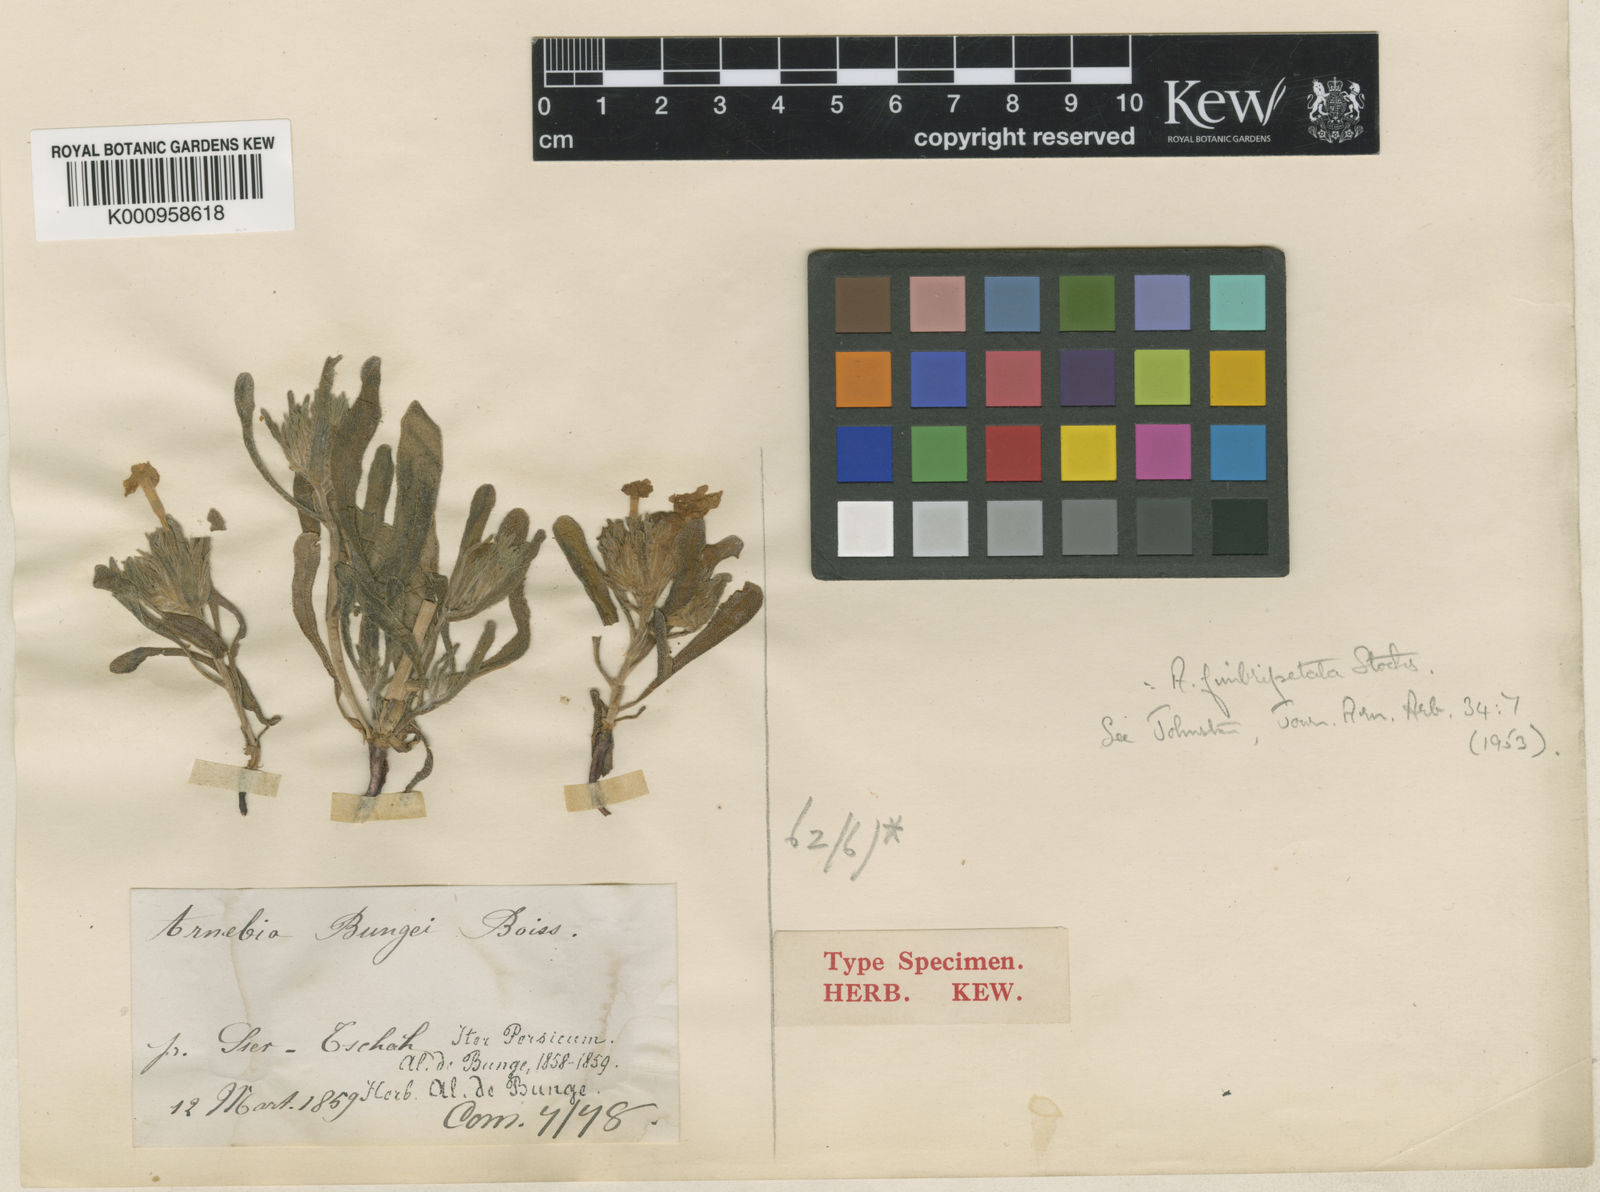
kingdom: Plantae
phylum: Tracheophyta
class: Magnoliopsida
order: Boraginales
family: Boraginaceae
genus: Arnebia
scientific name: Arnebia fimbriopetala
